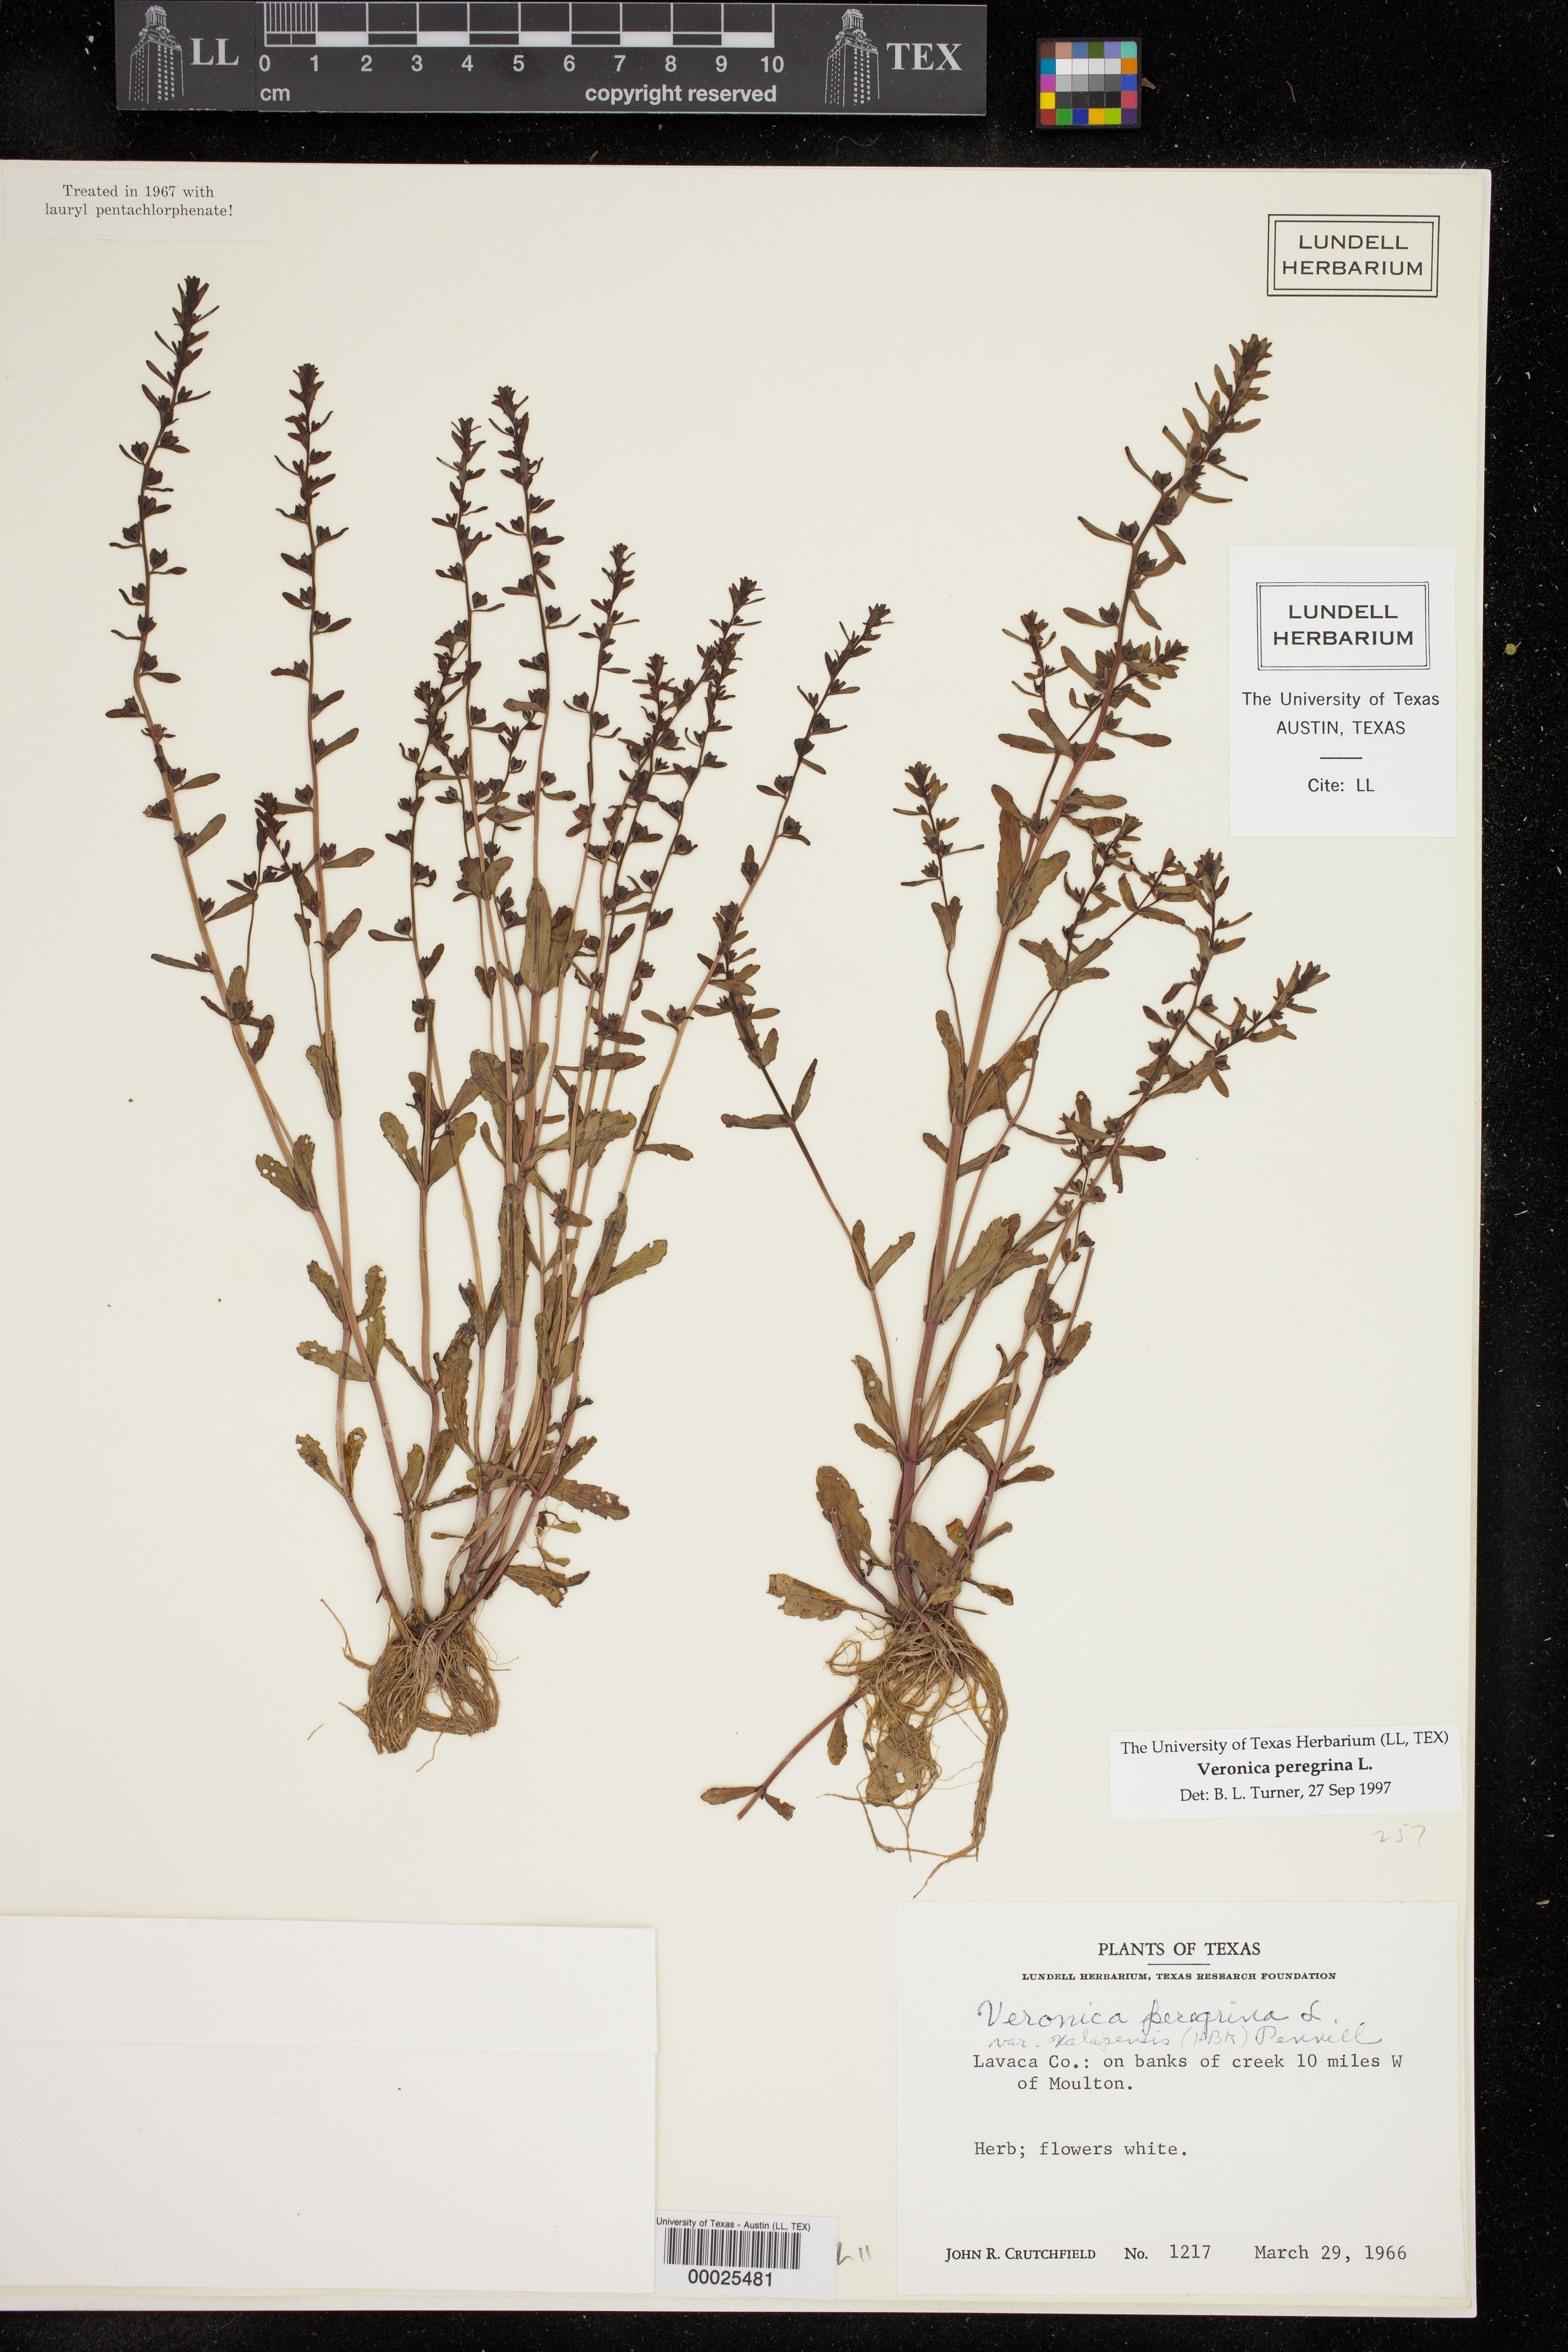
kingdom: Plantae
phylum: Tracheophyta
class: Magnoliopsida
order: Lamiales
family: Plantaginaceae
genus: Veronica
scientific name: Veronica peregrina
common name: Neckweed
